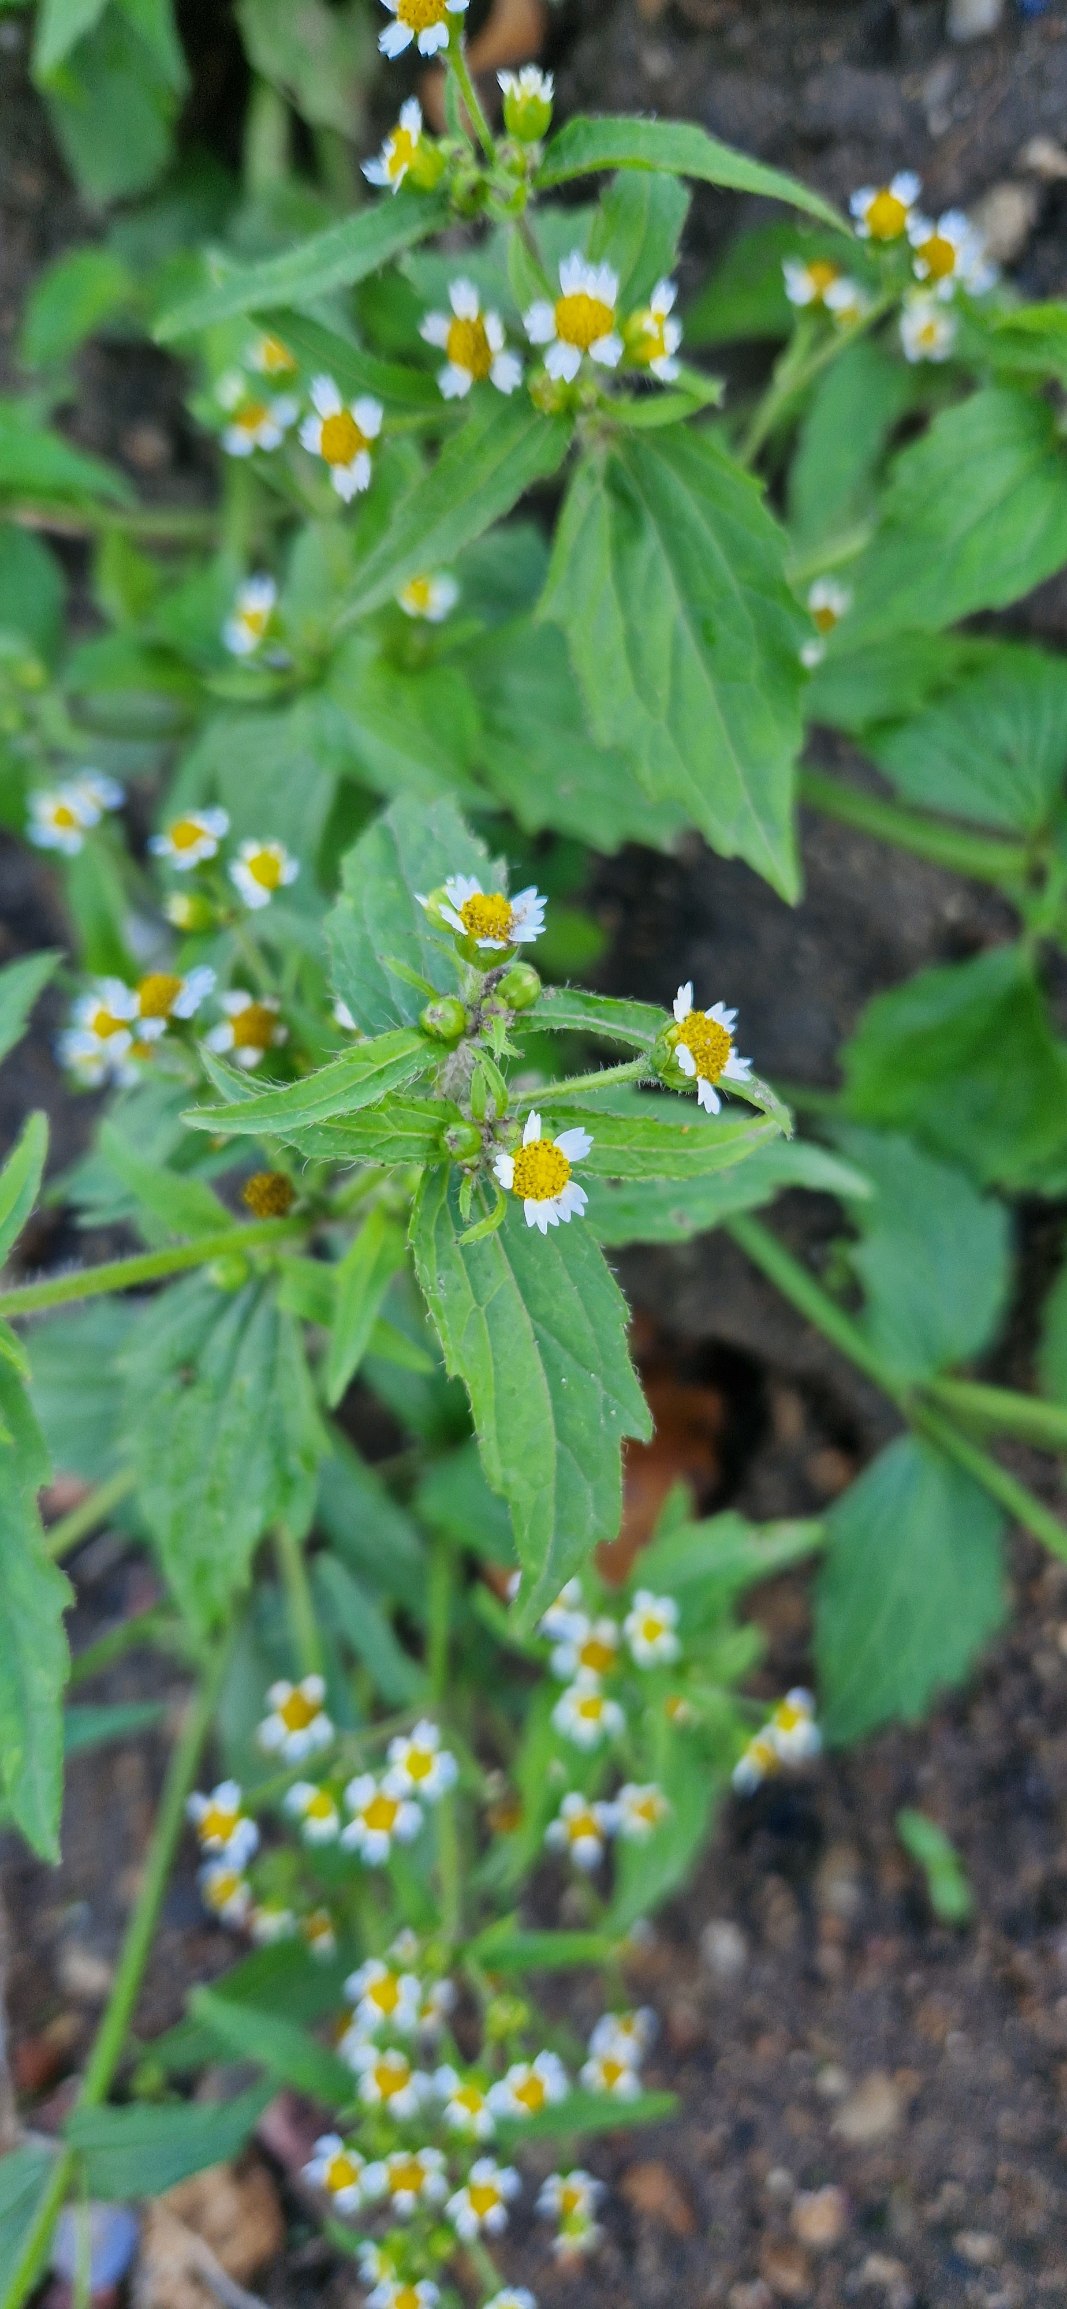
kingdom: Plantae
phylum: Tracheophyta
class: Magnoliopsida
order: Asterales
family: Asteraceae
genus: Galinsoga
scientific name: Galinsoga quadriradiata
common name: Kirtel-kortstråle
